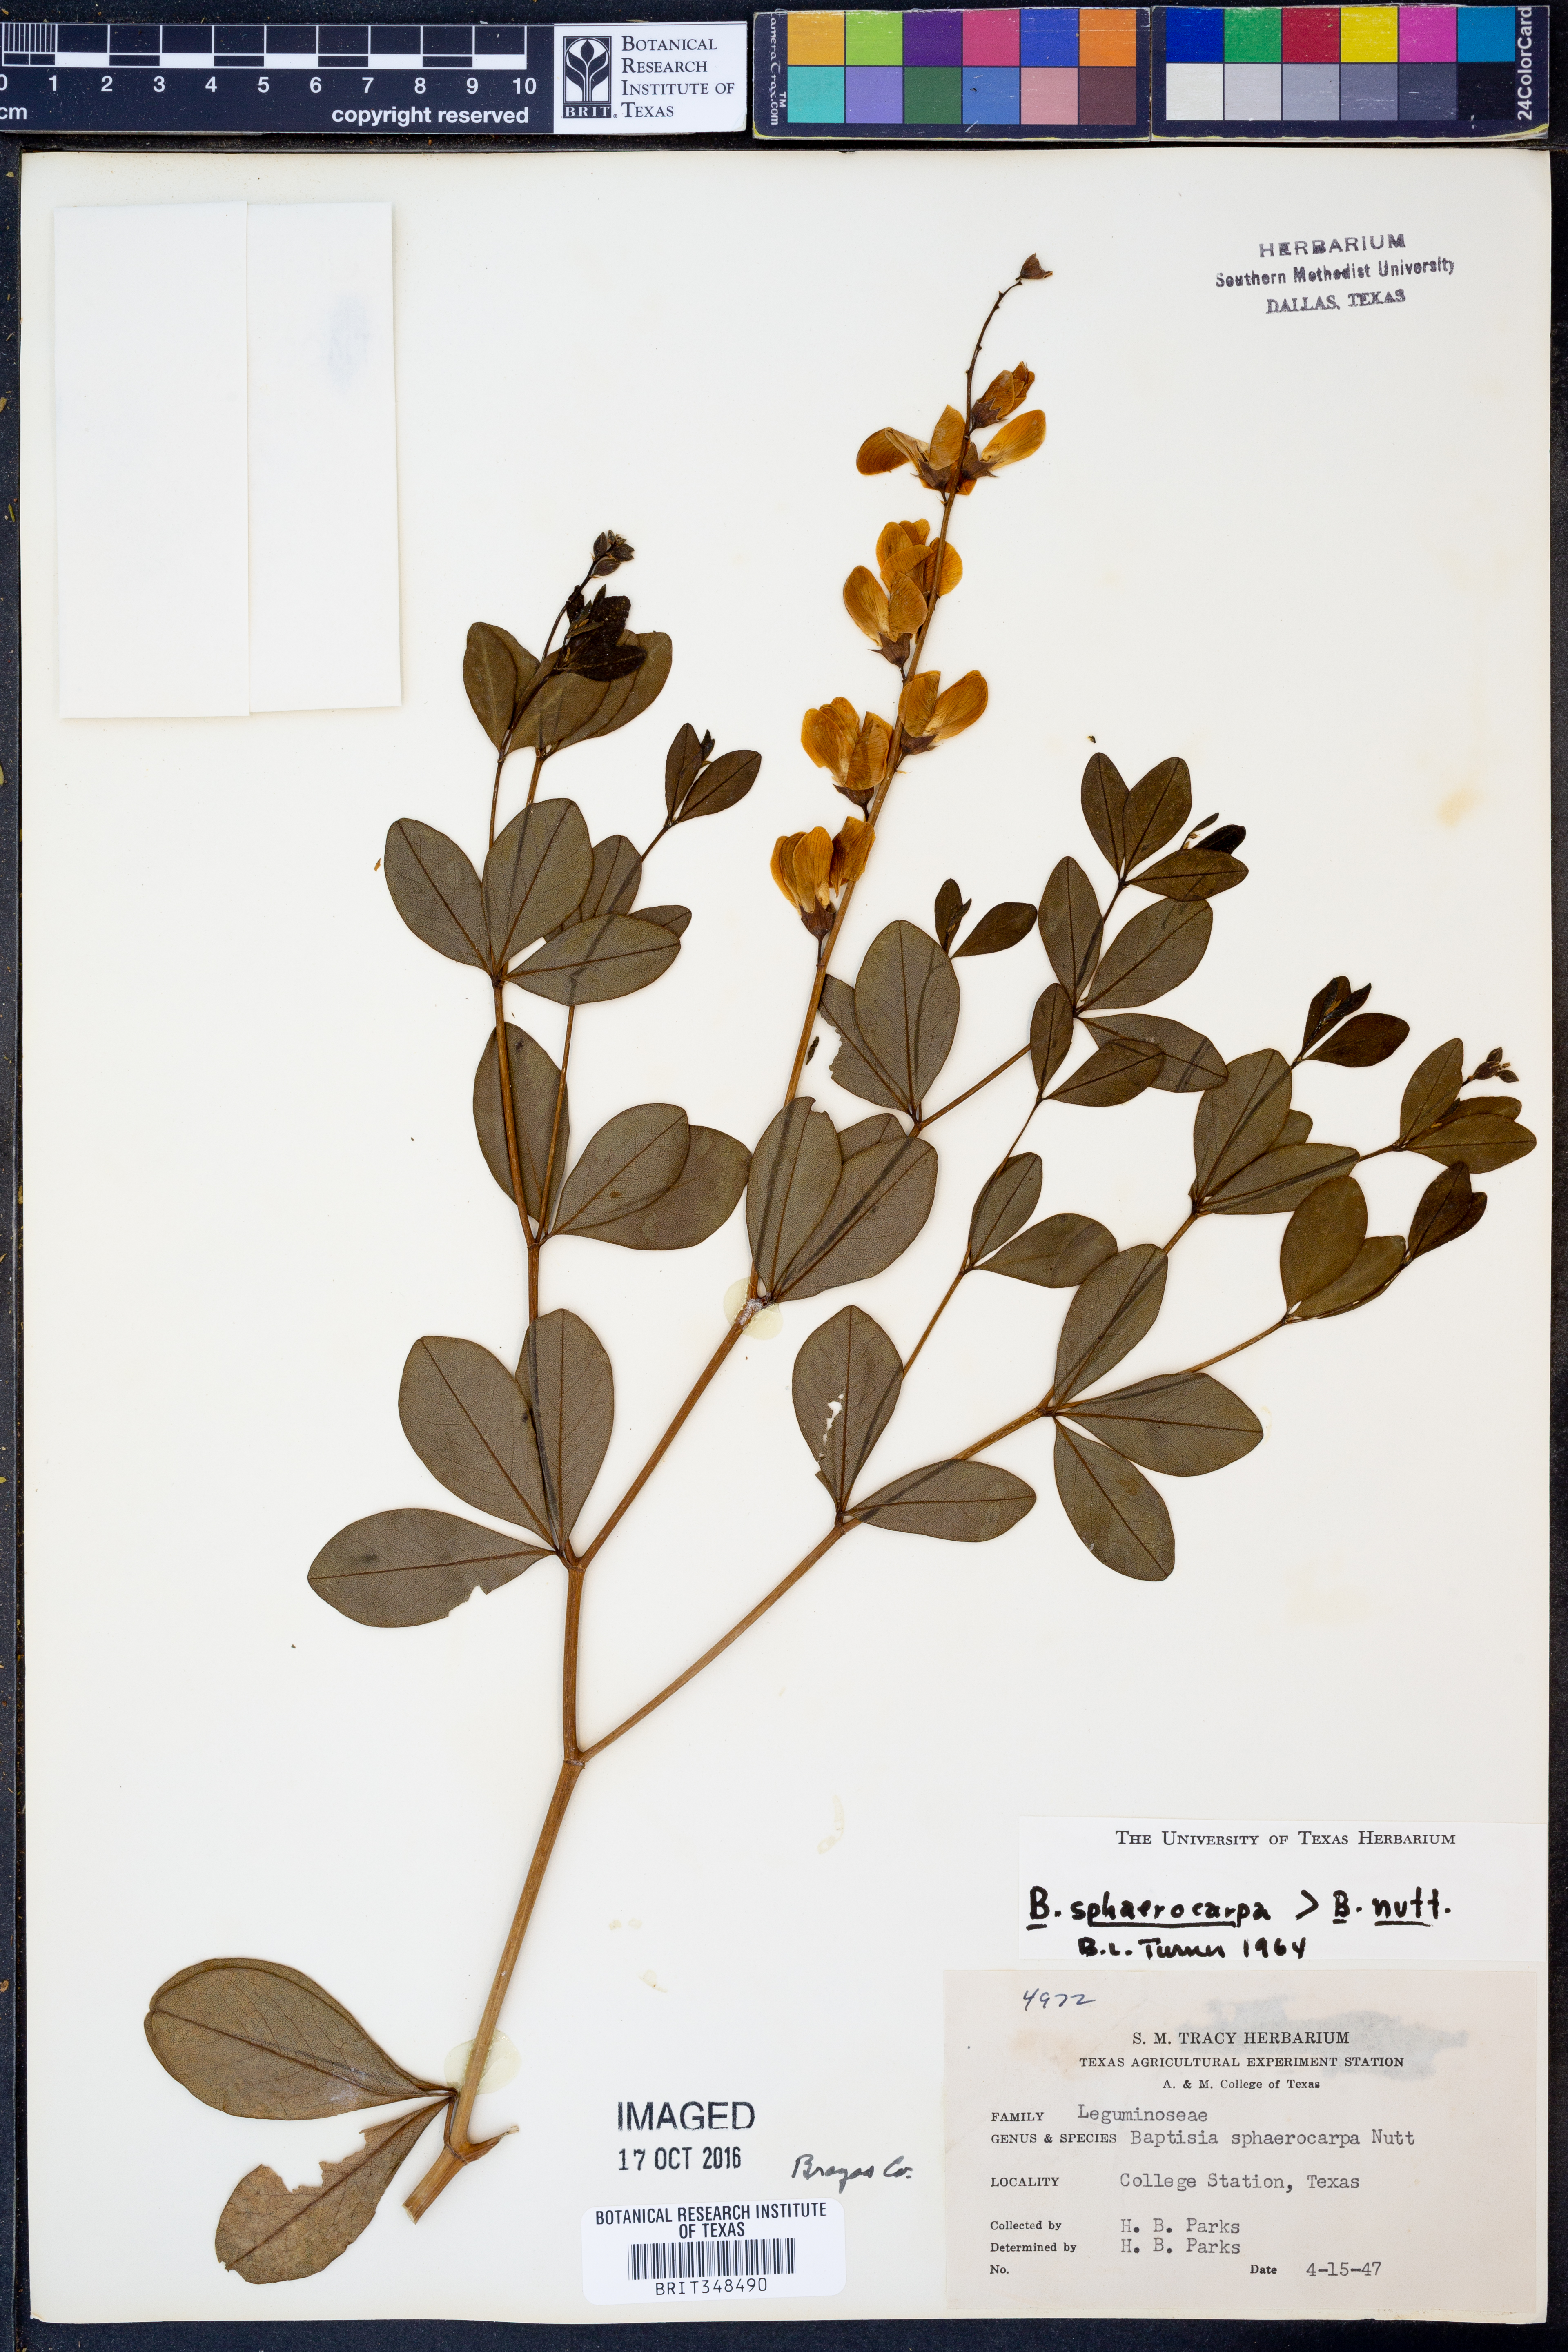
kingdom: Plantae
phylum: Tracheophyta
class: Magnoliopsida
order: Fabales
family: Fabaceae
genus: Baptisia
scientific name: Baptisia sphaerocarpa
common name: Round wild indigo
